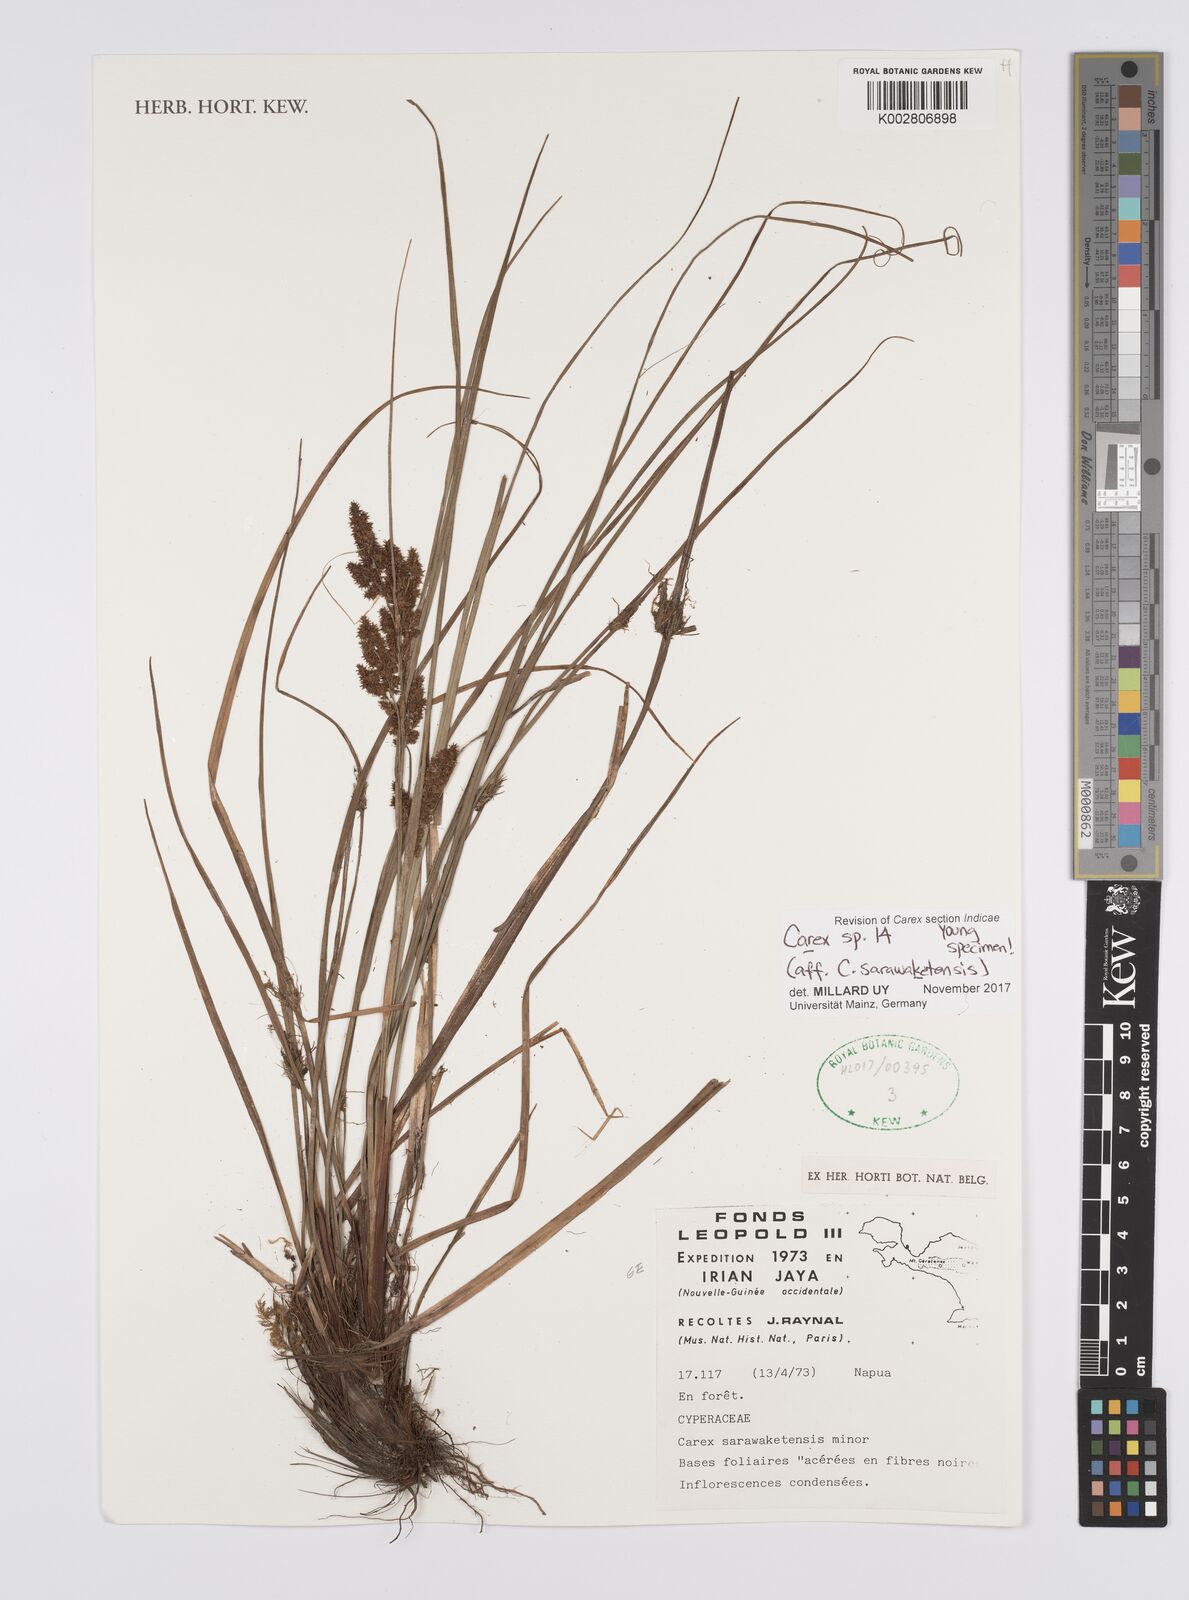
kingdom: Plantae
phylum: Tracheophyta
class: Liliopsida
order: Poales
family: Cyperaceae
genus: Carex
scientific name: Carex sarawaketensis
